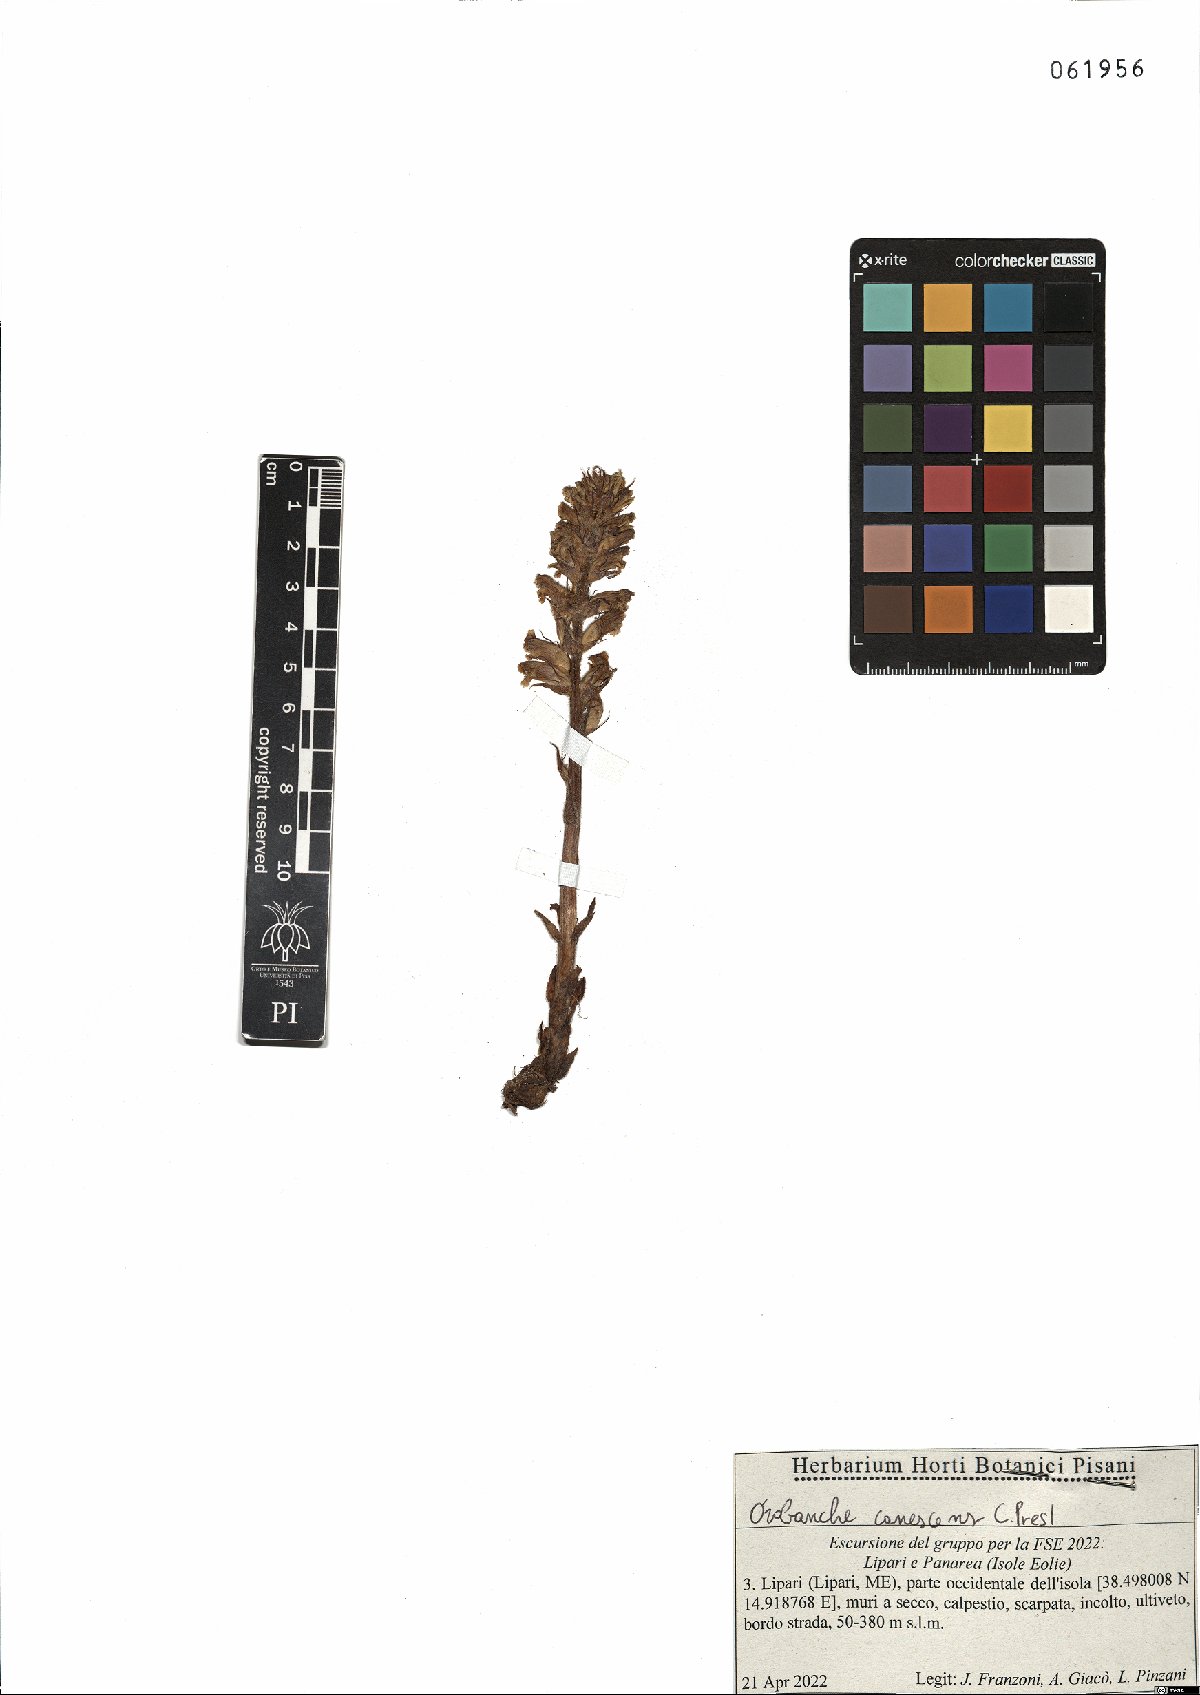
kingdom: Plantae
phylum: Tracheophyta
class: Magnoliopsida
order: Lamiales
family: Orobanchaceae
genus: Orobanche
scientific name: Orobanche canescens
